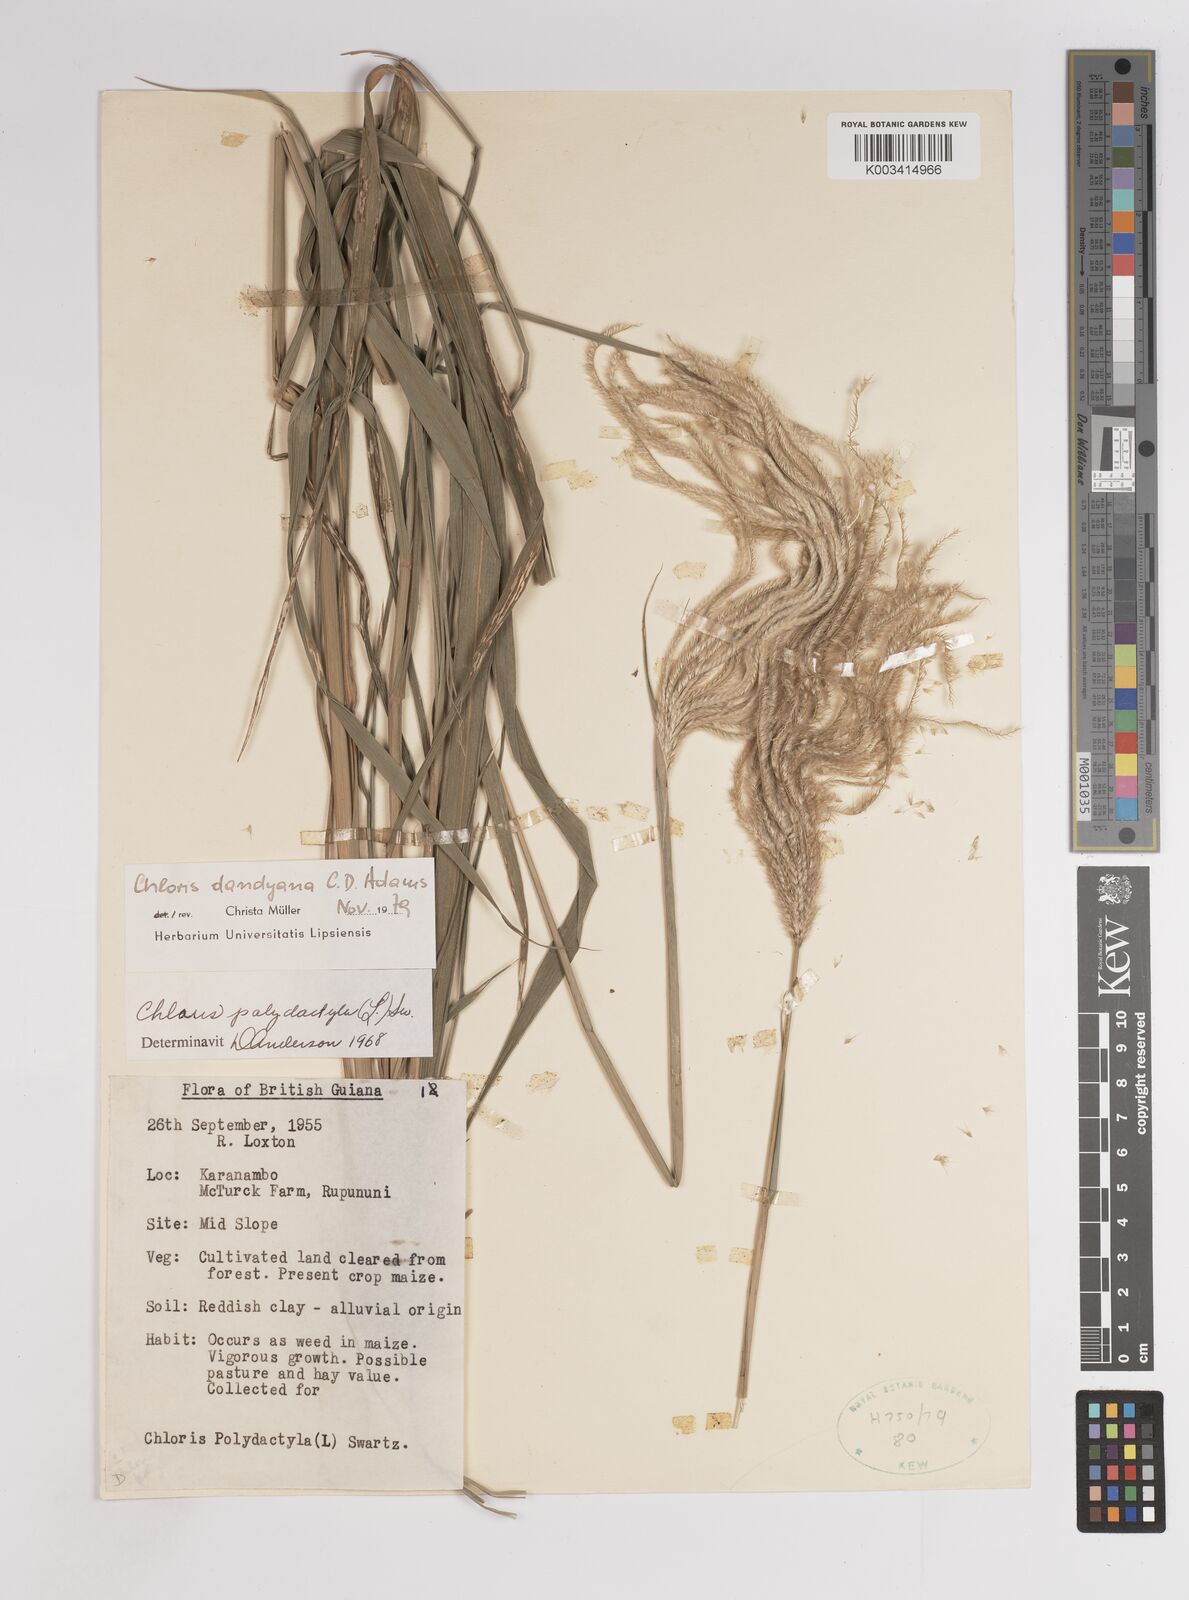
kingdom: Plantae
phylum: Tracheophyta
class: Liliopsida
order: Poales
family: Poaceae
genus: Stapfochloa
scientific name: Stapfochloa elata
